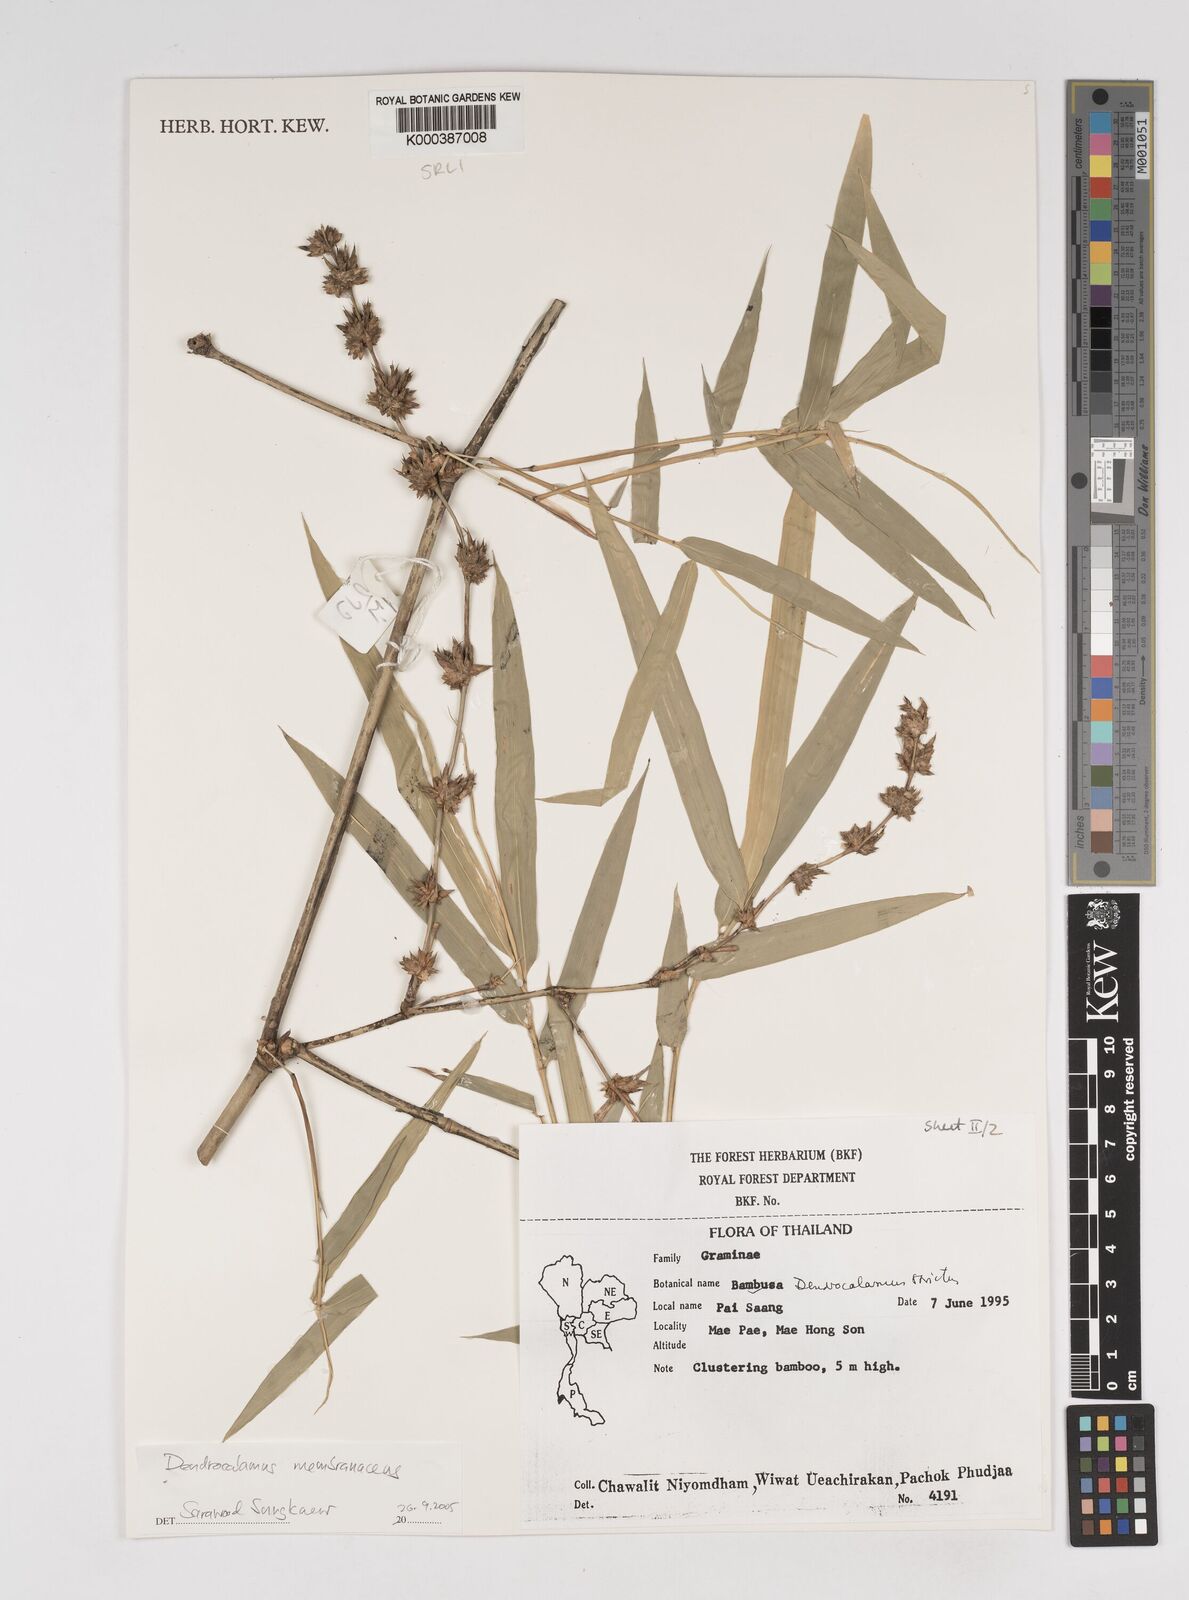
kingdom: Plantae
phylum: Tracheophyta
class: Liliopsida
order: Poales
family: Poaceae
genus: Dendrocalamus
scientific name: Dendrocalamus membranaceus
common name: White bamboo
